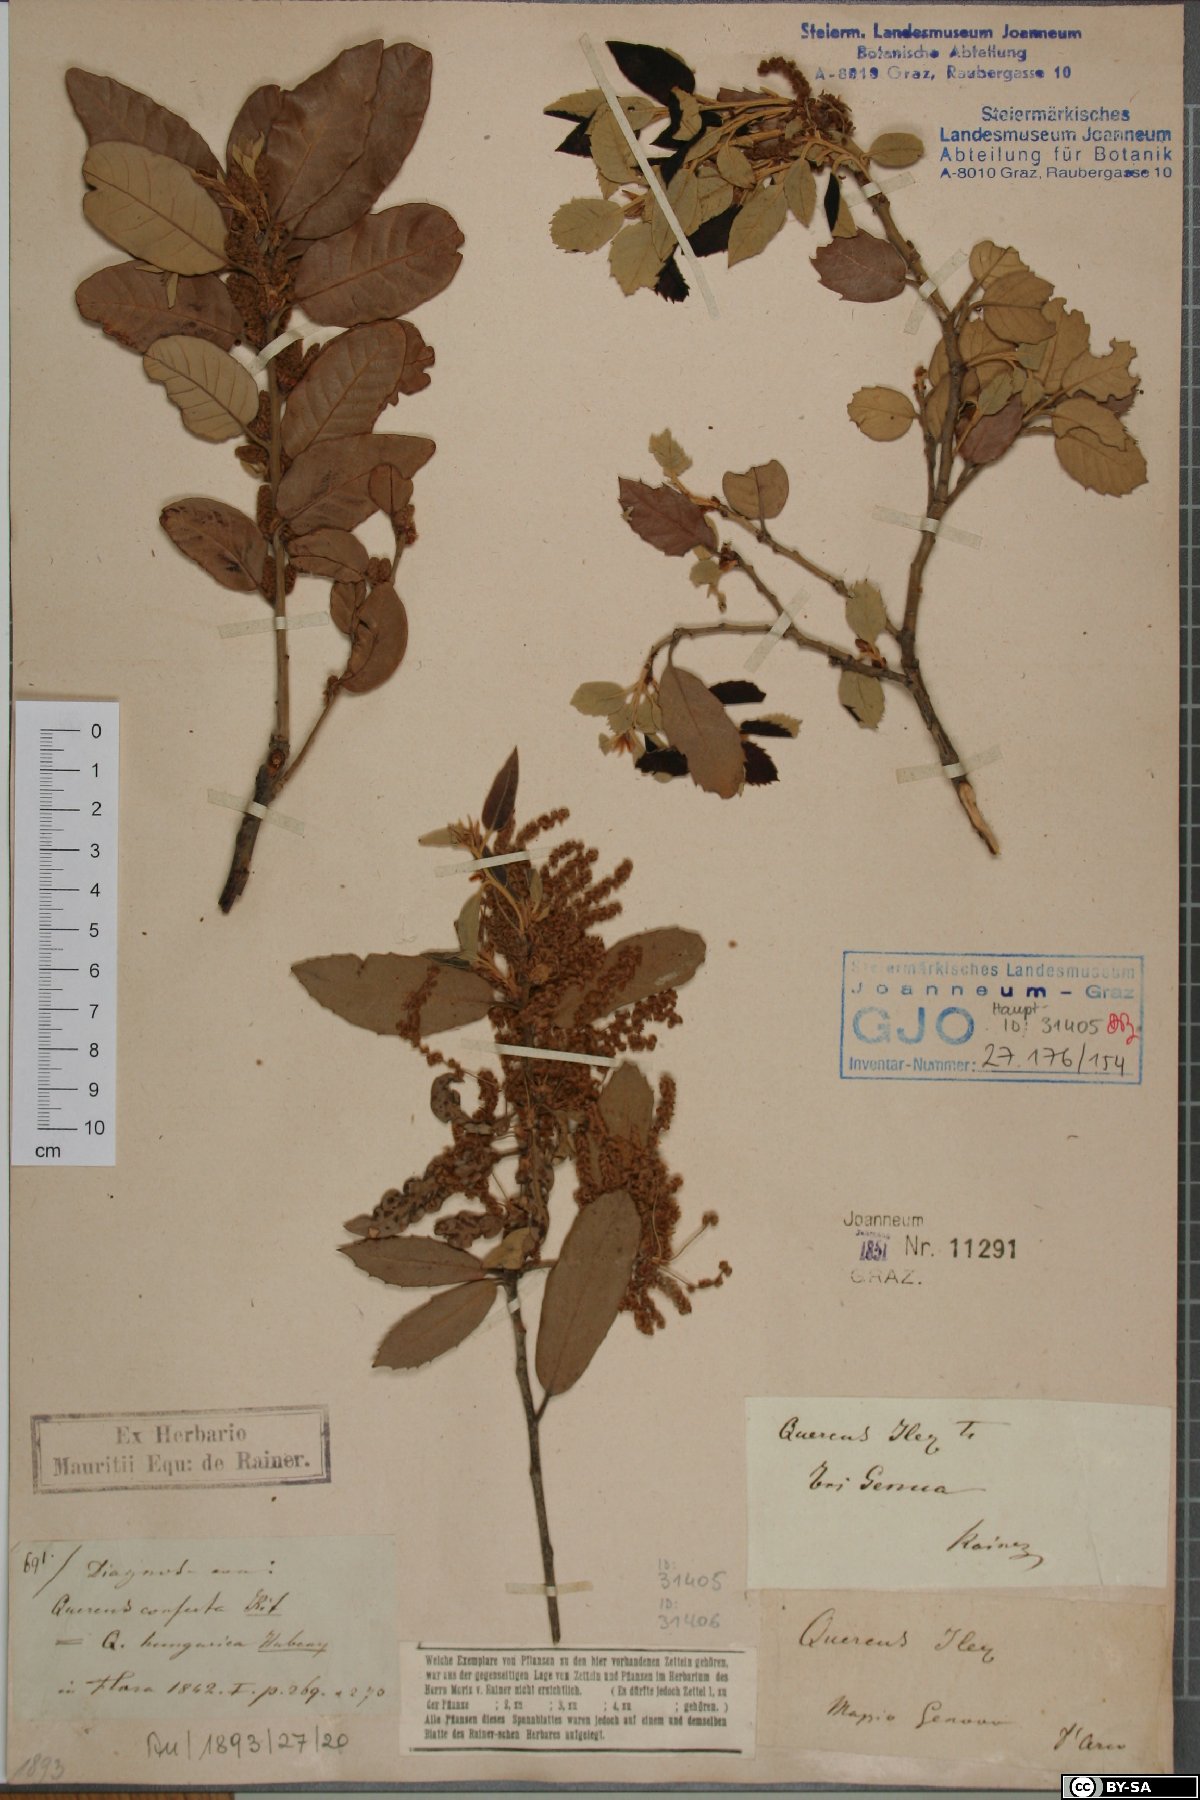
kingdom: Plantae
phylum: Tracheophyta
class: Magnoliopsida
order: Fagales
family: Fagaceae
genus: Quercus
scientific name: Quercus ilex
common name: Evergreen oak
